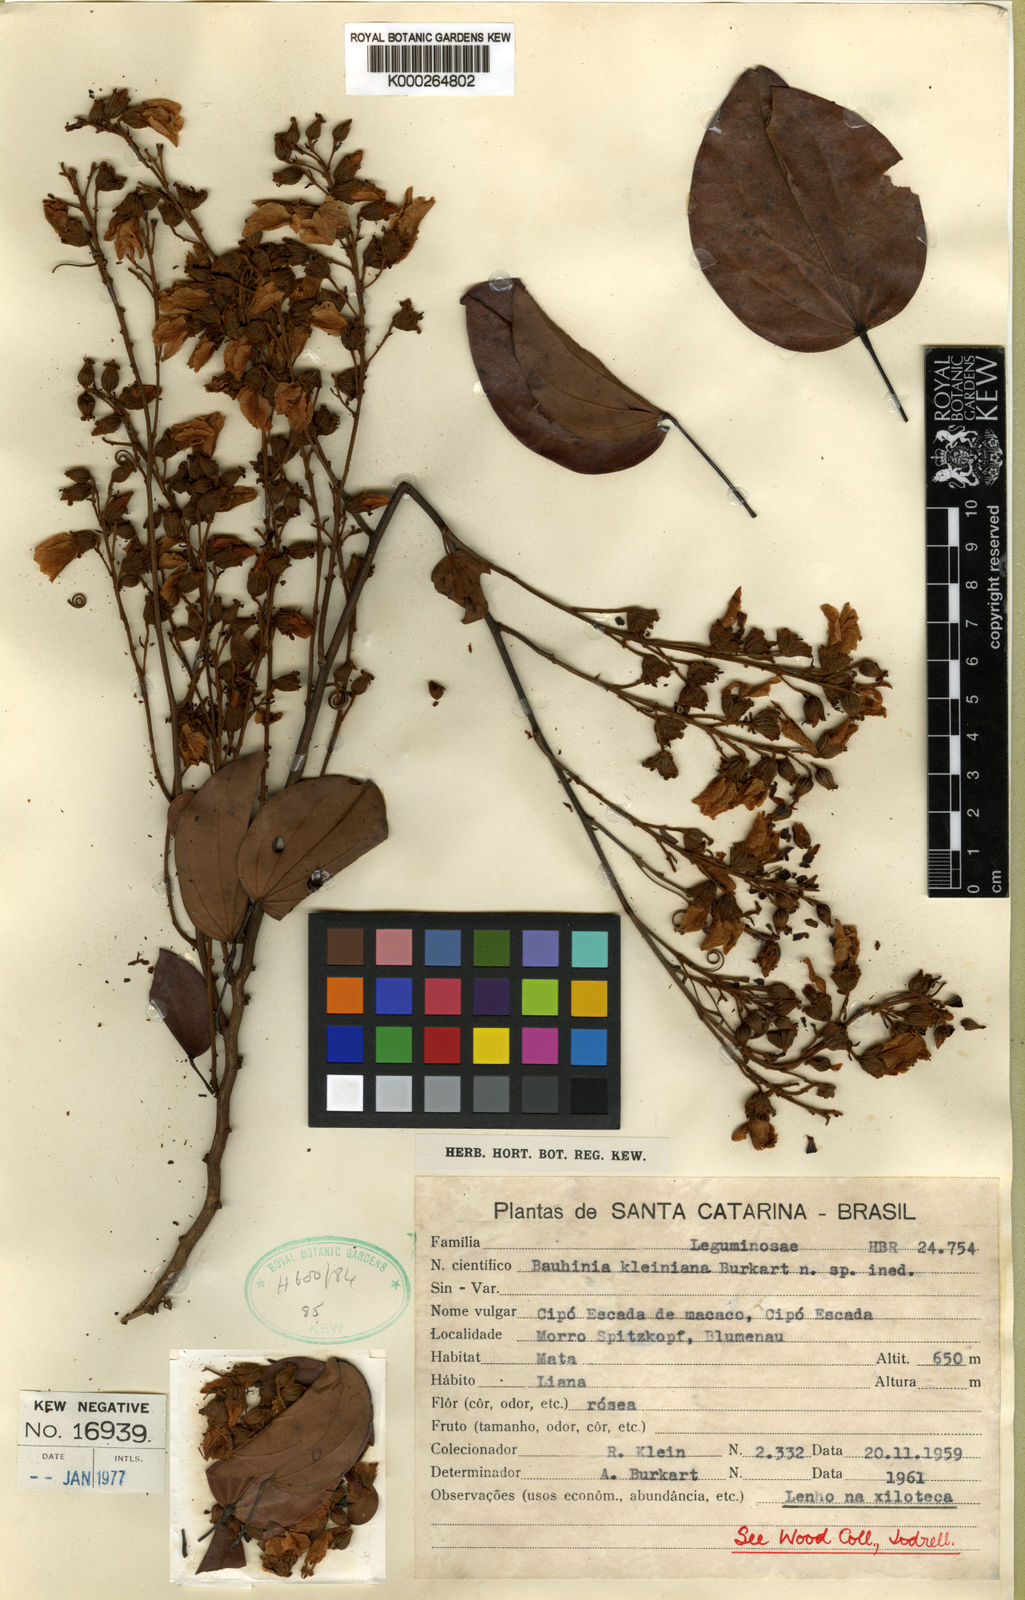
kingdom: Plantae
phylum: Tracheophyta
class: Magnoliopsida
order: Fabales
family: Fabaceae
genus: Bauhinia
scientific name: Bauhinia kleiniana
